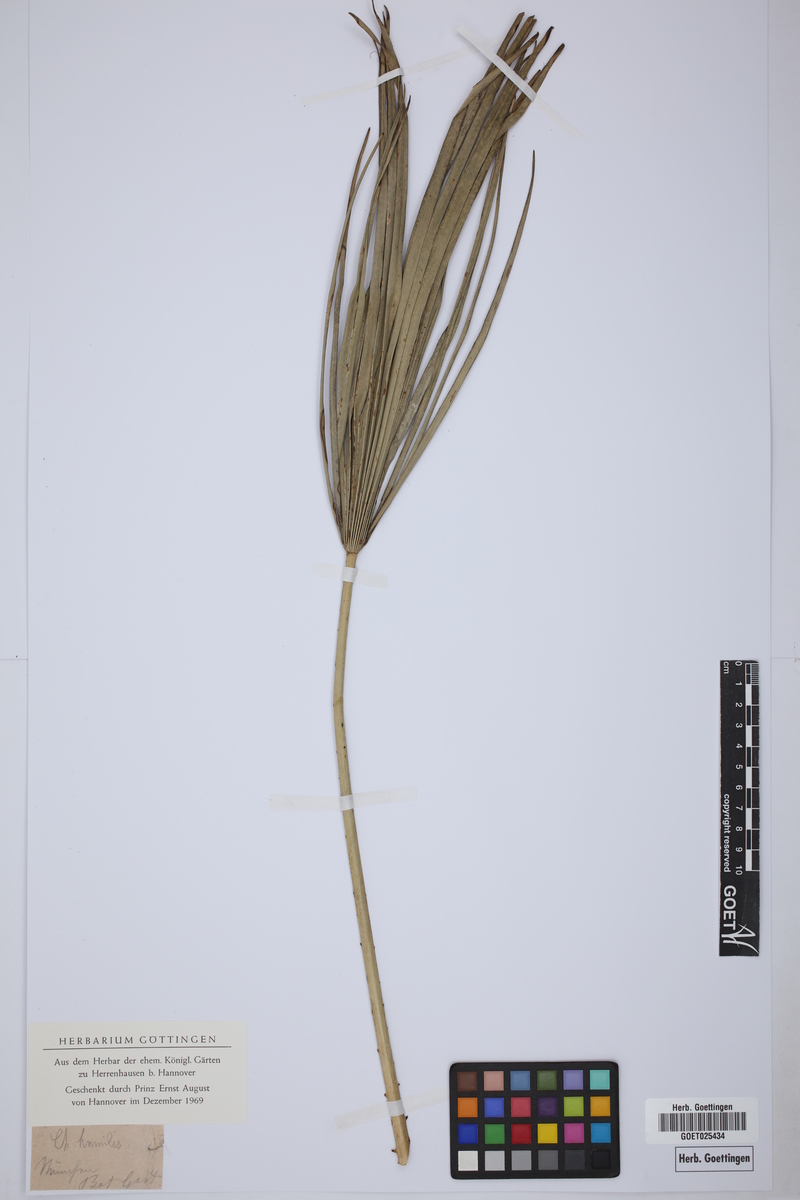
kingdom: Plantae
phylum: Tracheophyta
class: Liliopsida
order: Arecales
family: Arecaceae
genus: Chamaerops
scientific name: Chamaerops humilis
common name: Dwarf fan palm
